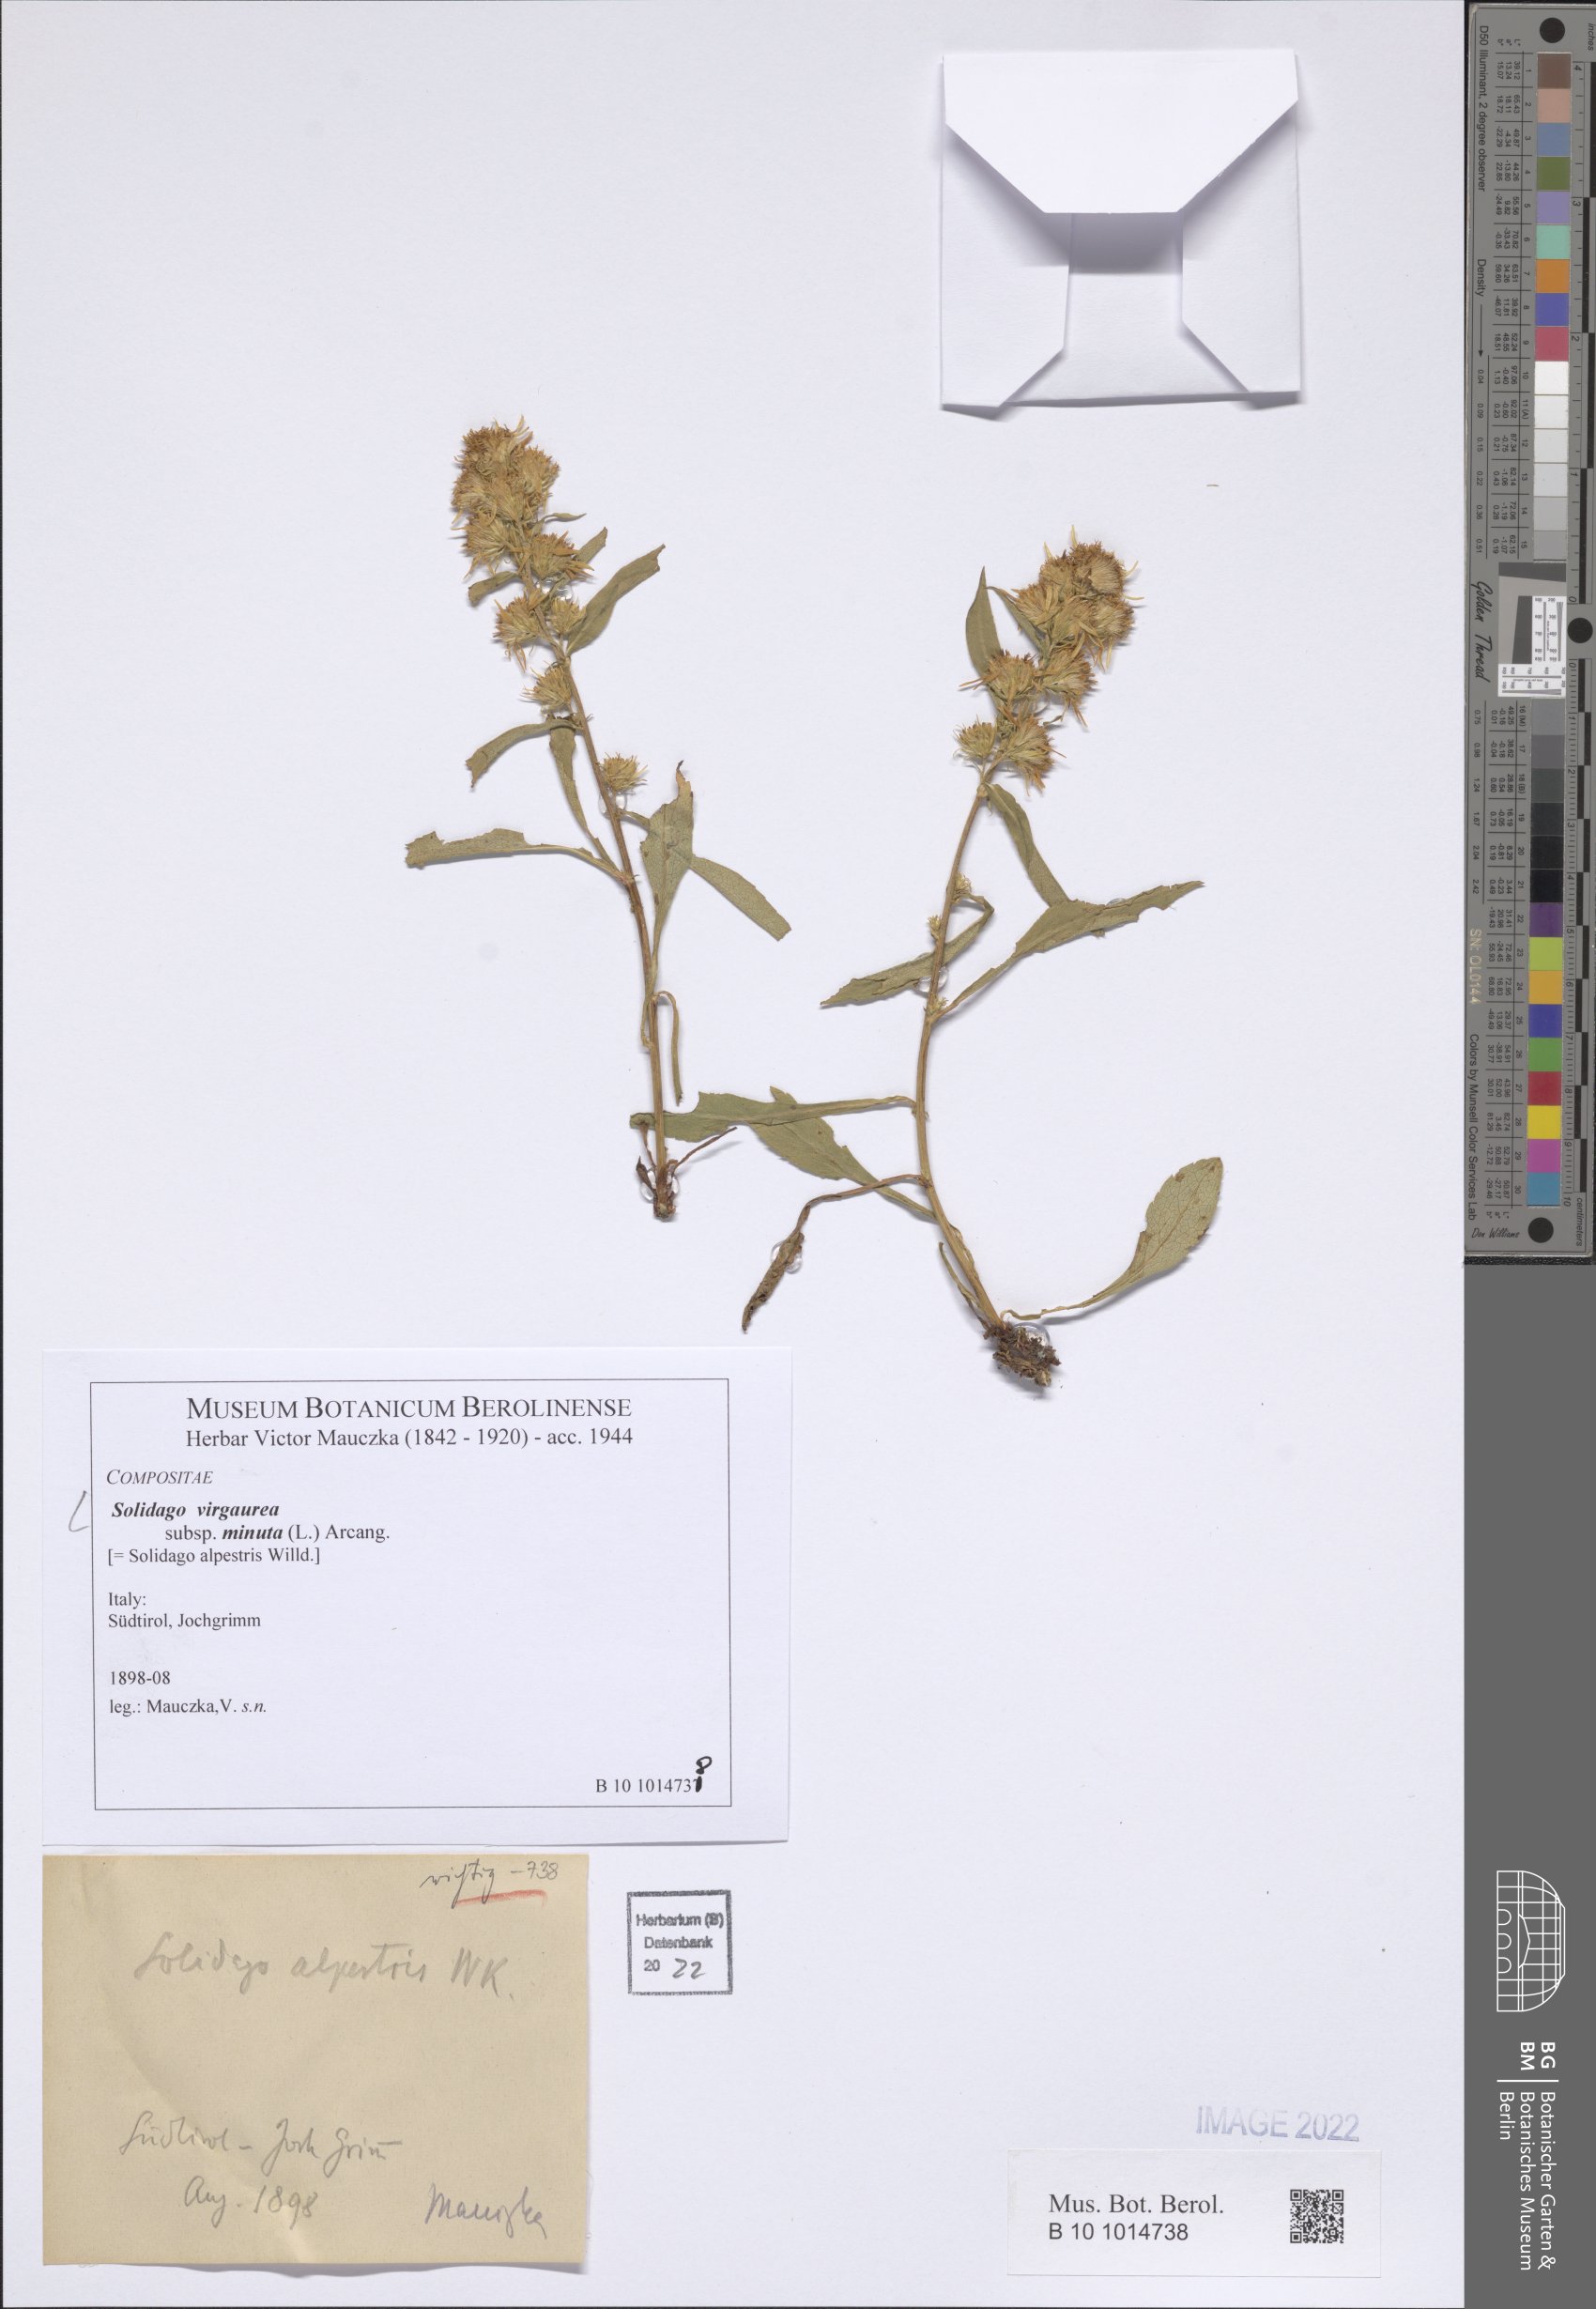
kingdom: Plantae
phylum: Tracheophyta
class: Magnoliopsida
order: Asterales
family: Asteraceae
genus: Solidago
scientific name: Solidago virgaurea
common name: Goldenrod
